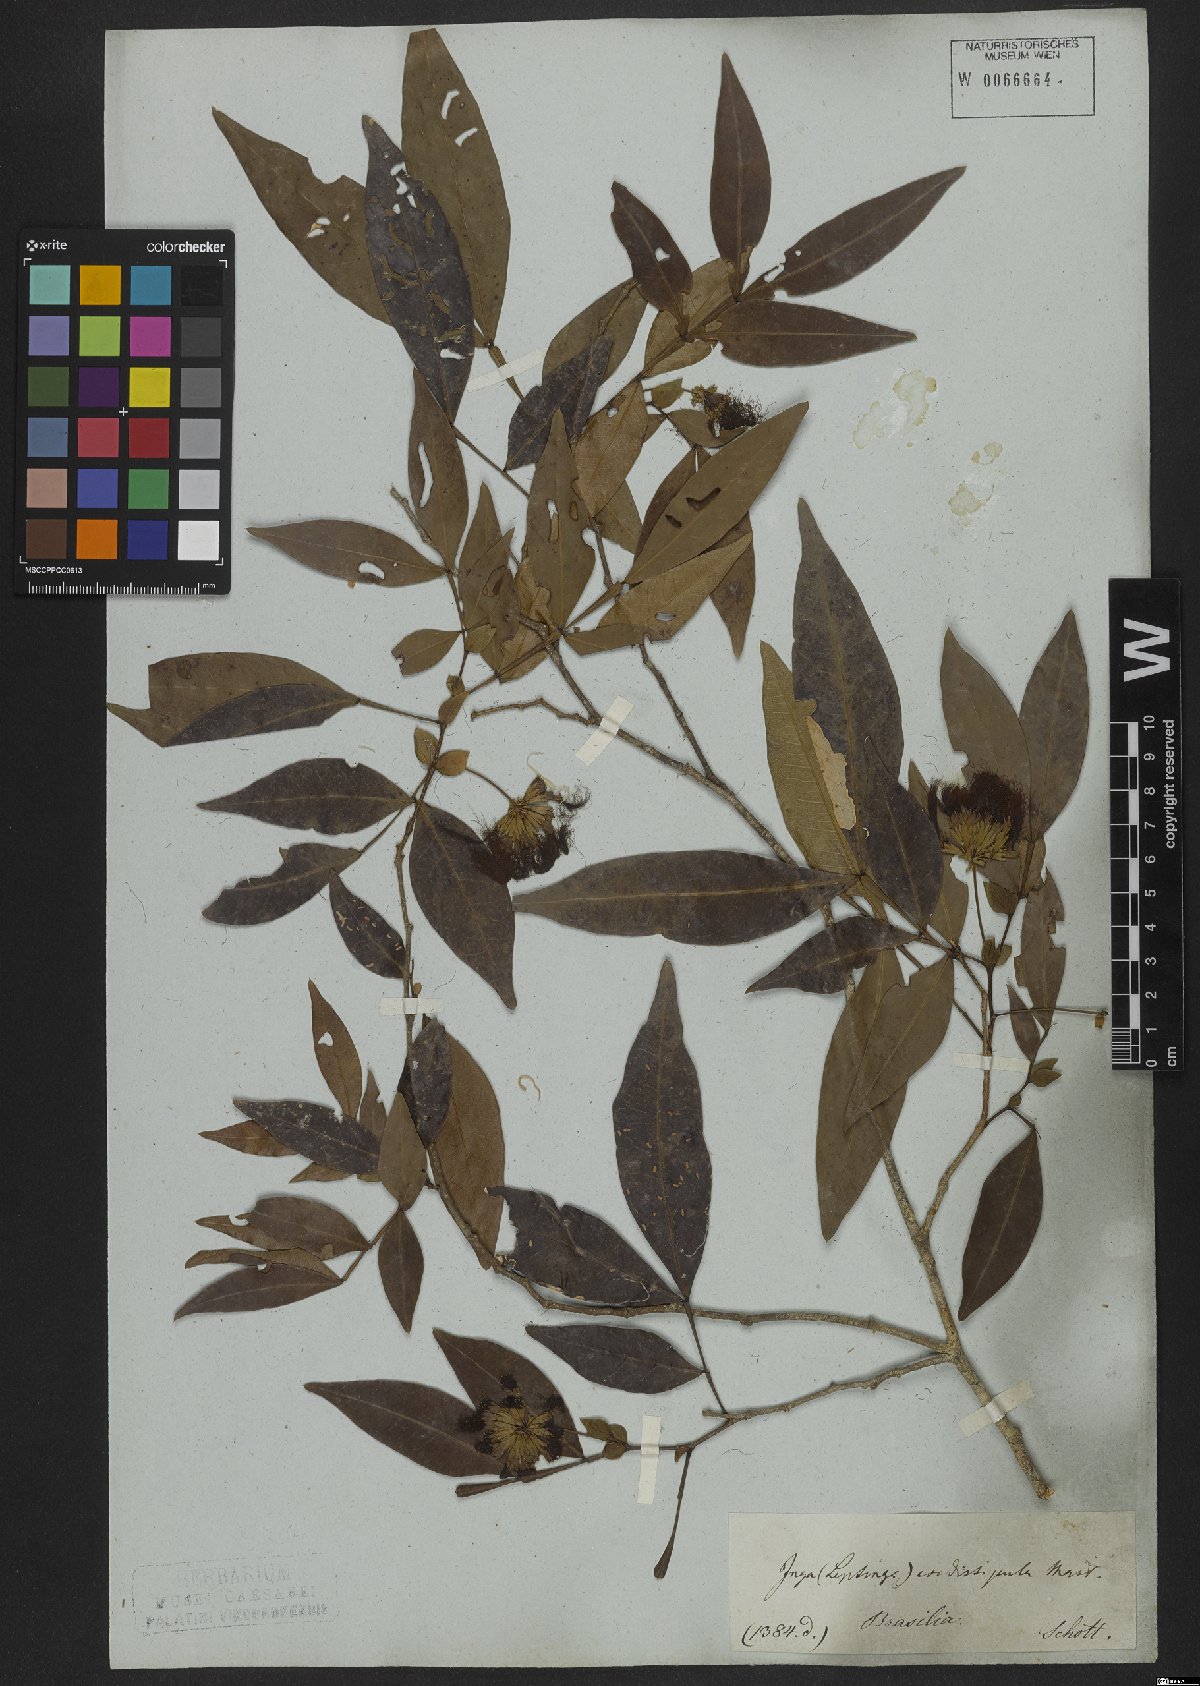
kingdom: Plantae
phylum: Tracheophyta
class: Magnoliopsida
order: Fabales
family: Fabaceae
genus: Inga
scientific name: Inga cordistipula
